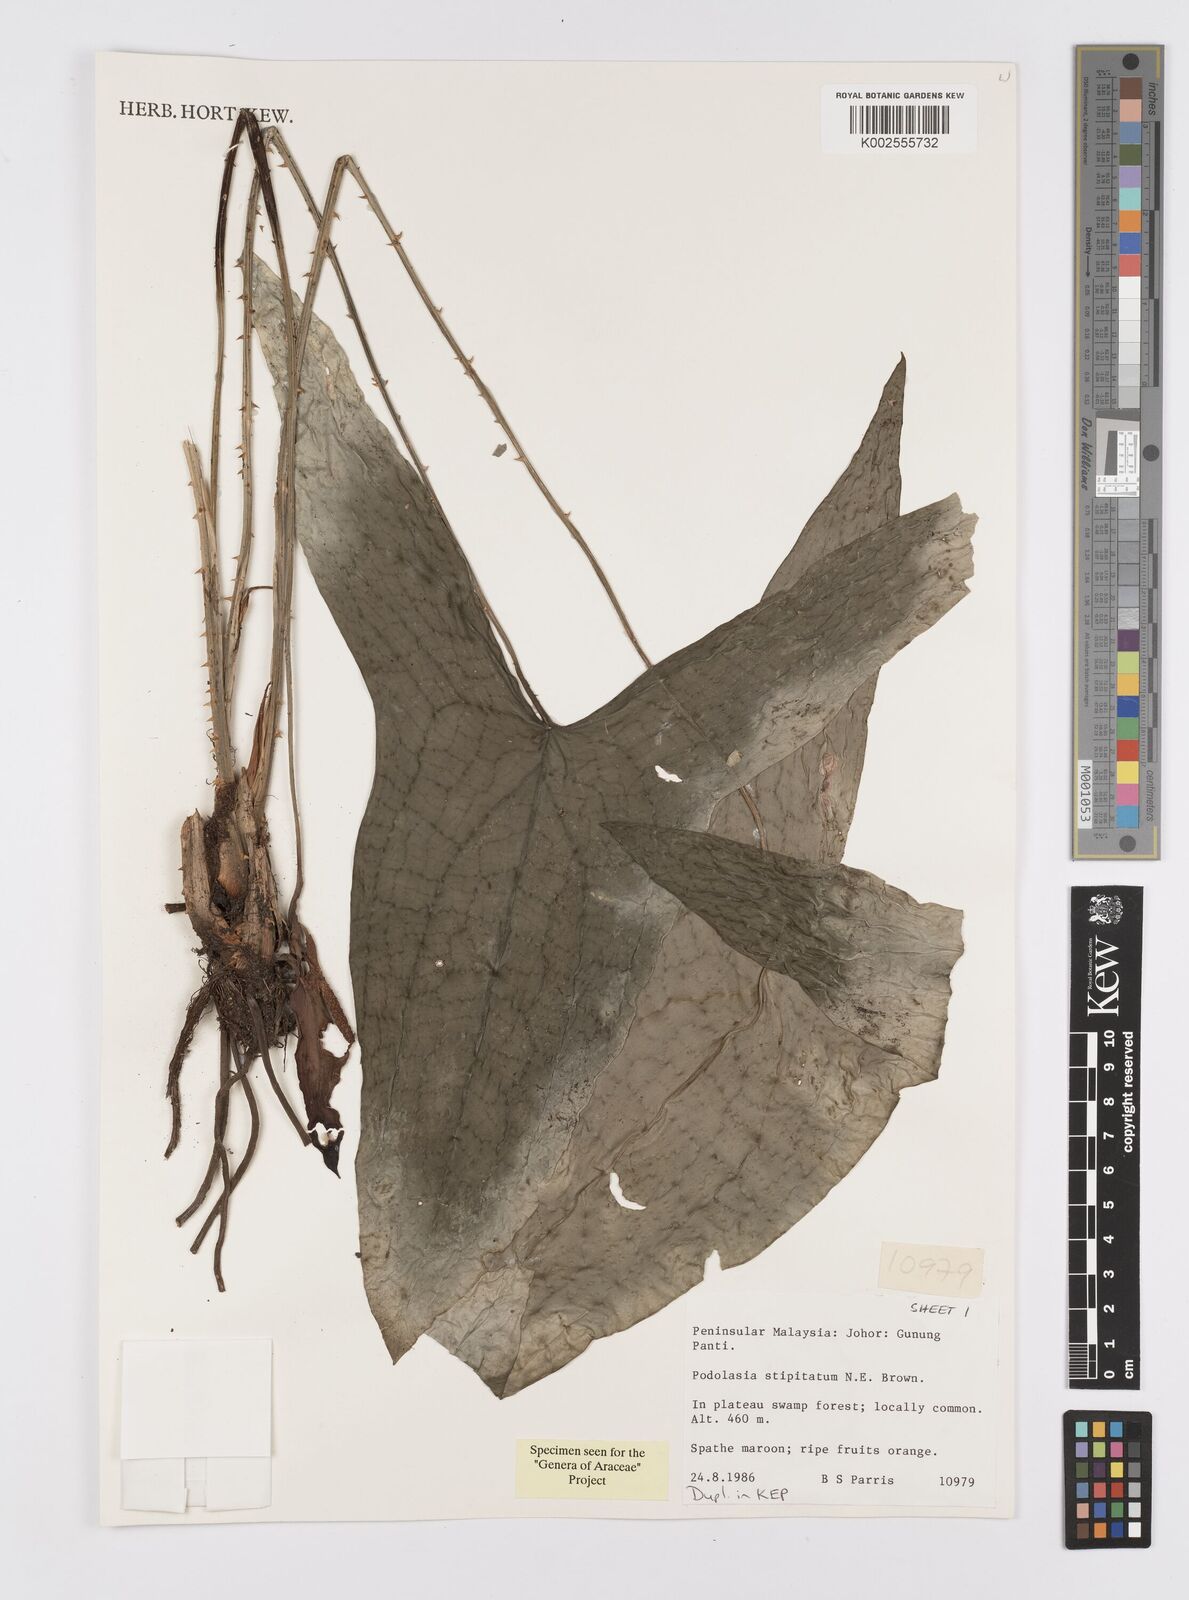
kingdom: Plantae
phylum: Tracheophyta
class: Liliopsida
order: Alismatales
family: Araceae
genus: Podolasia
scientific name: Podolasia stipitata
